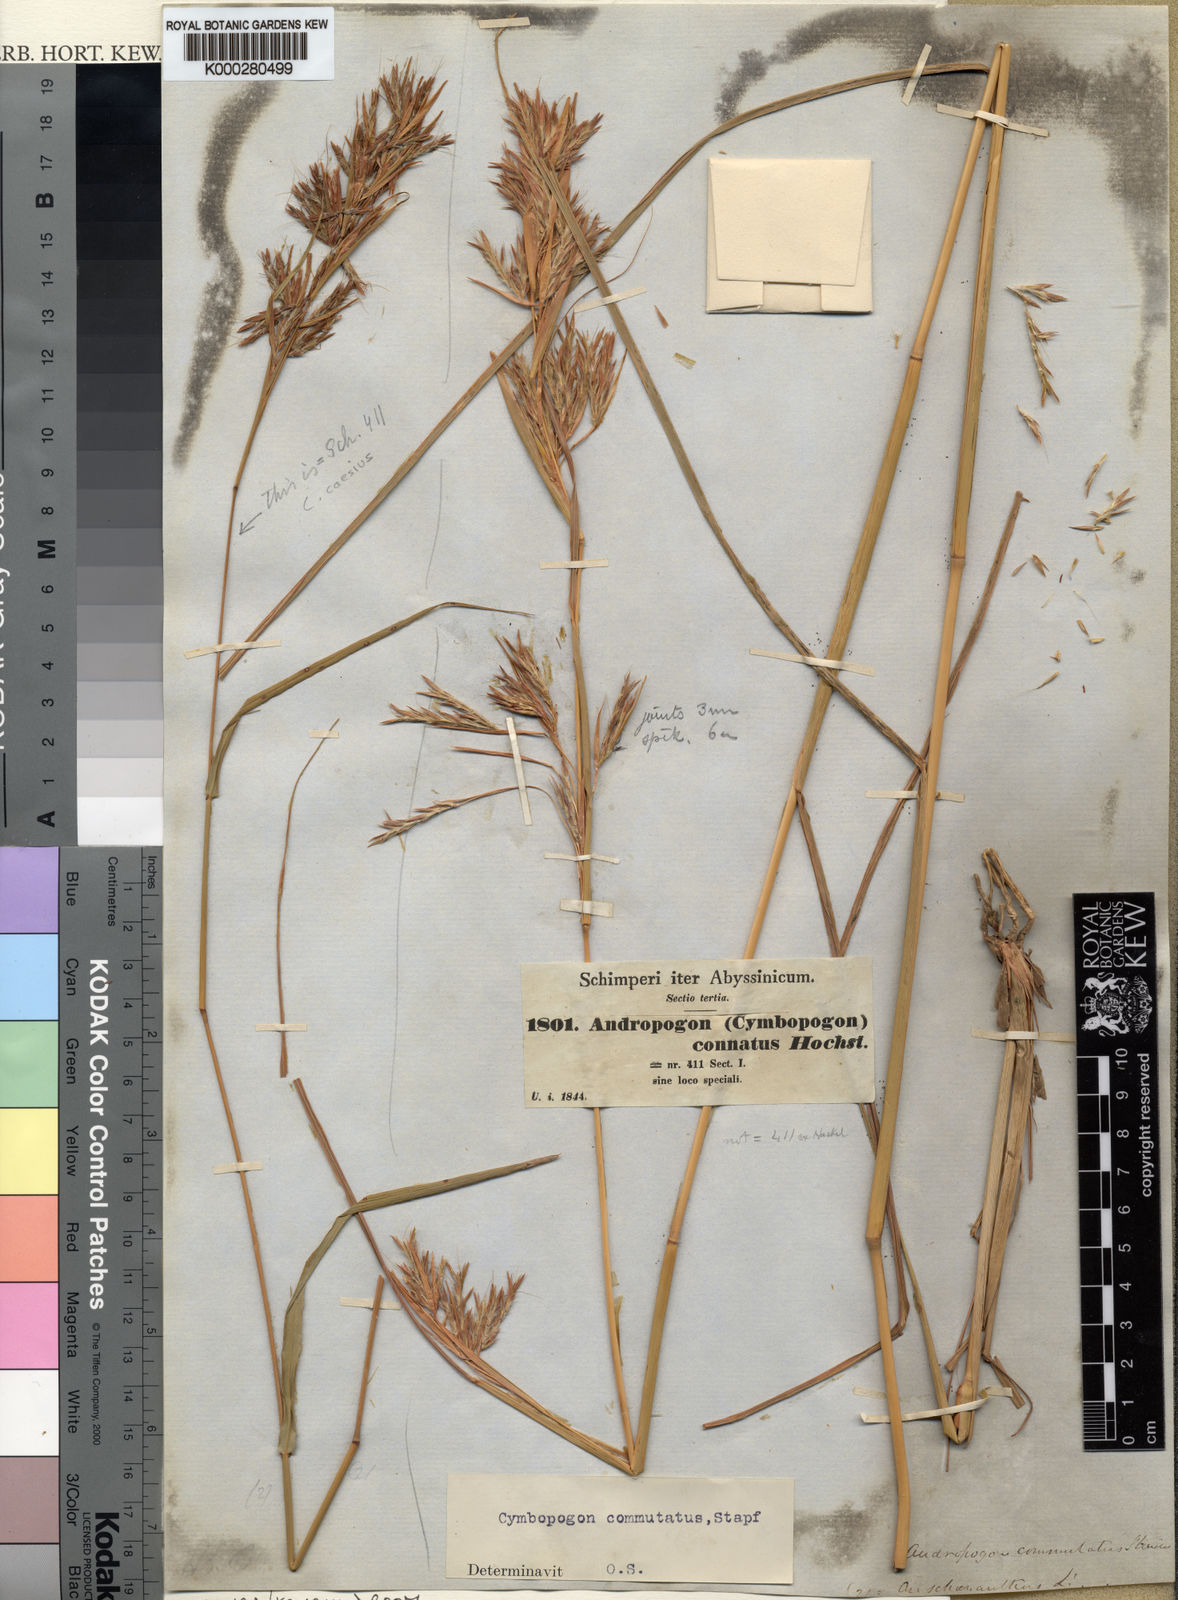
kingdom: Plantae
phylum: Tracheophyta
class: Liliopsida
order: Poales
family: Poaceae
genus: Cymbopogon
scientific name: Cymbopogon commutatus
